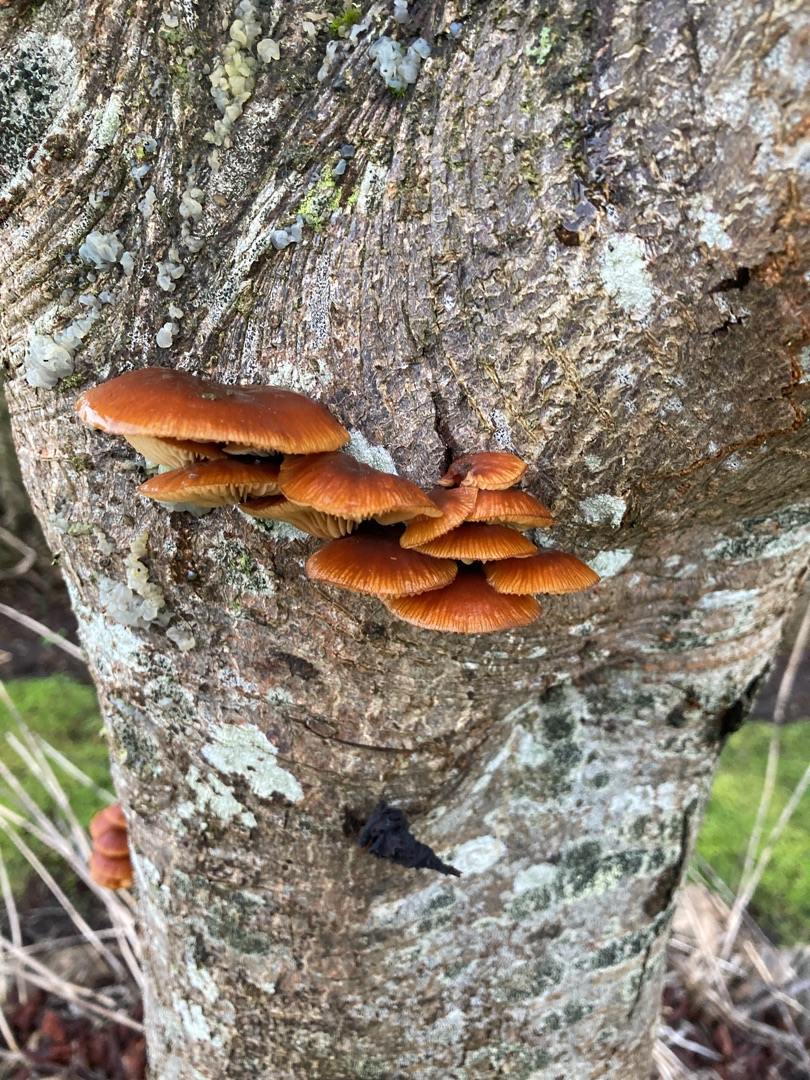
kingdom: Fungi
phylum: Basidiomycota
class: Agaricomycetes
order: Agaricales
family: Physalacriaceae
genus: Flammulina
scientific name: Flammulina
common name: Fløjlsfod
